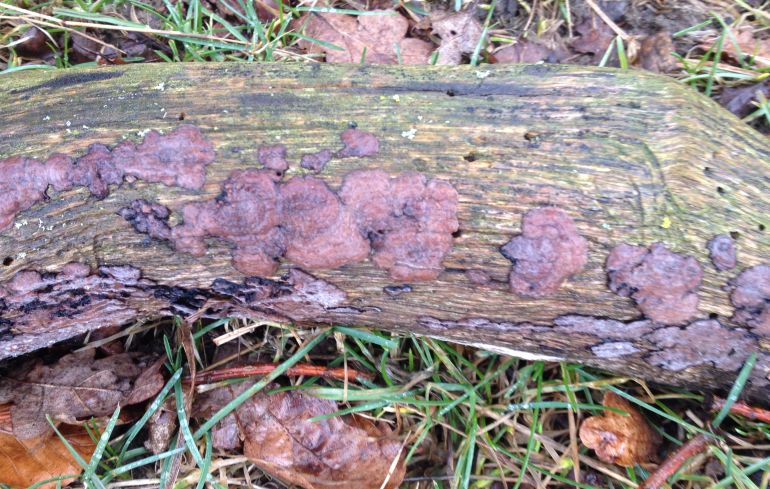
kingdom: Fungi
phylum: Basidiomycota
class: Agaricomycetes
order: Russulales
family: Peniophoraceae
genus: Peniophora
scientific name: Peniophora quercina
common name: ege-voksskind
